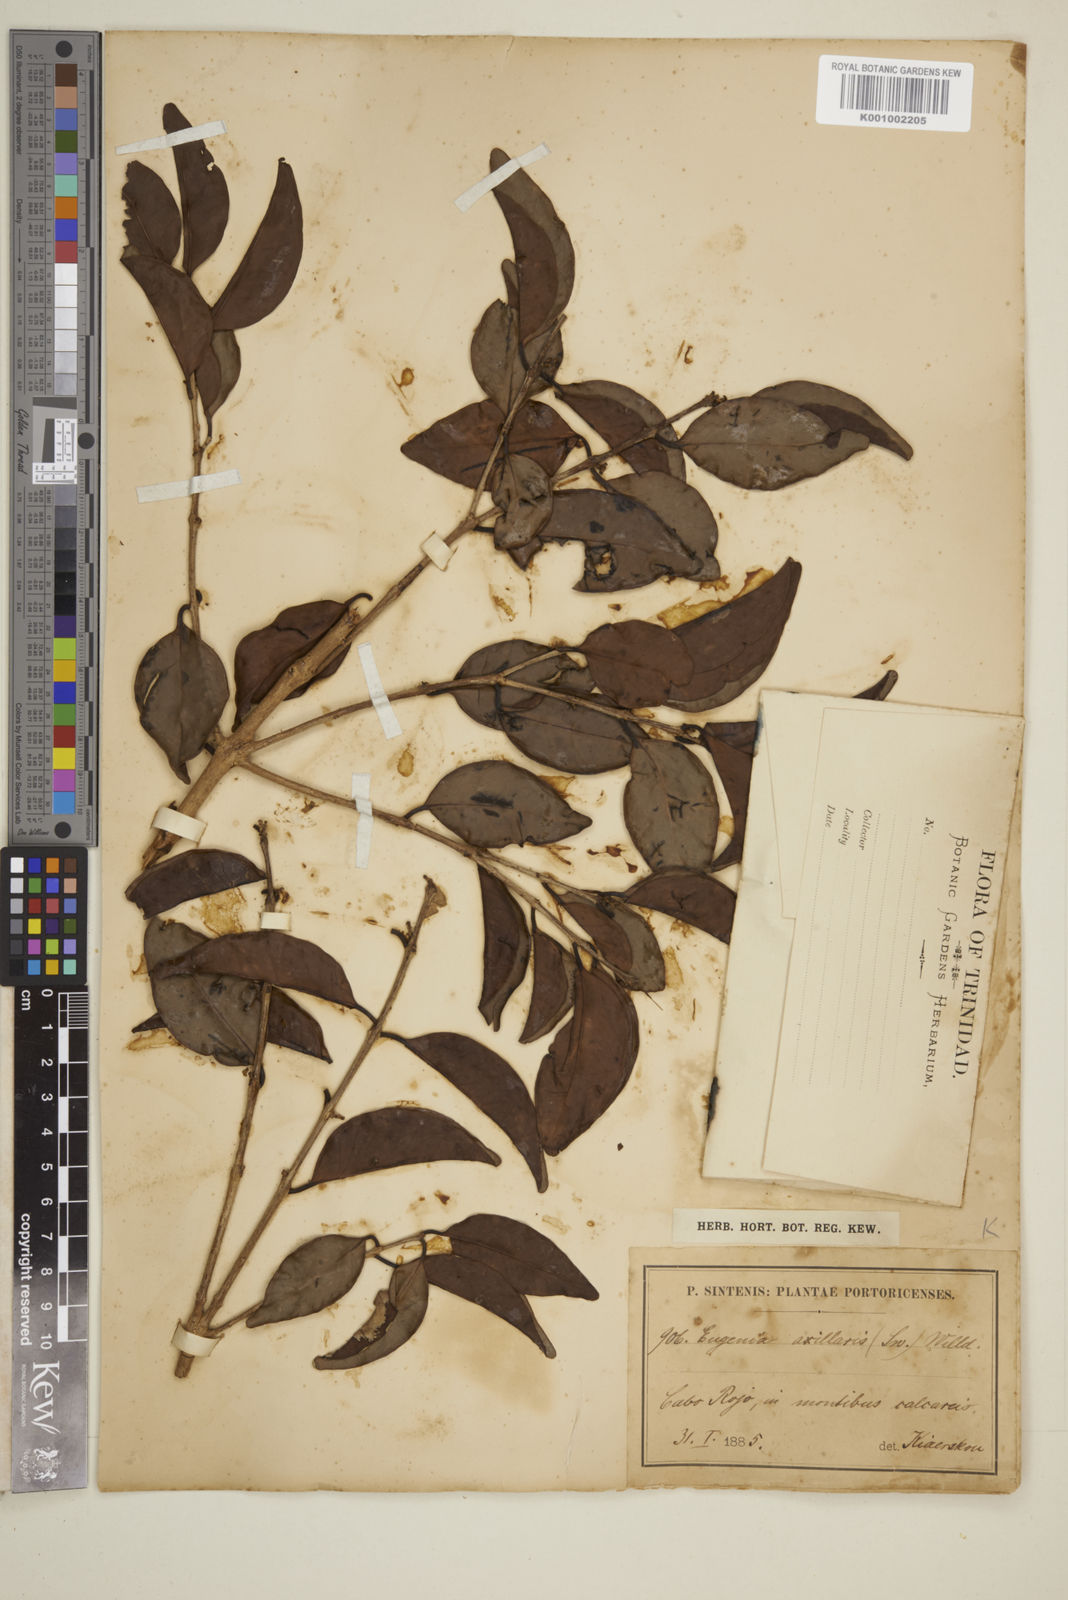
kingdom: Plantae
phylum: Tracheophyta
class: Magnoliopsida
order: Myrtales
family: Myrtaceae
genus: Eugenia
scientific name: Eugenia axillaris
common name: Choaky berry
